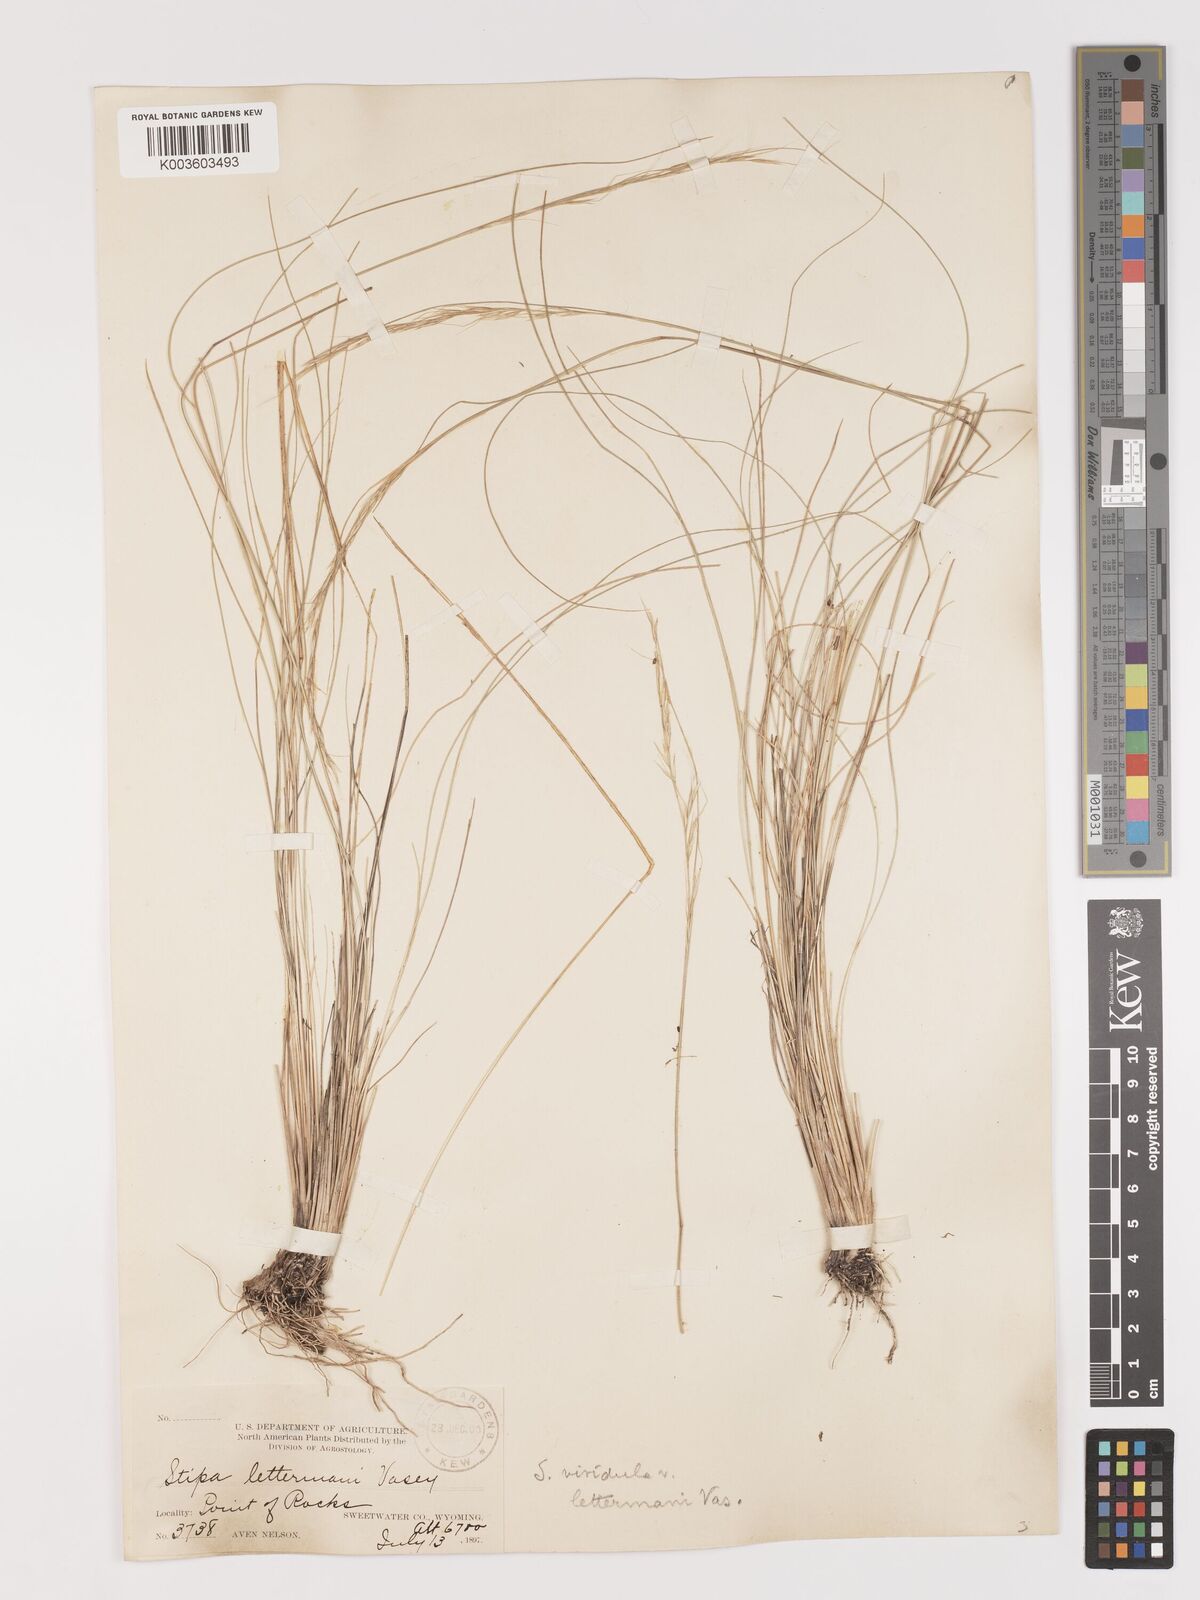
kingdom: Plantae
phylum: Tracheophyta
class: Liliopsida
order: Poales
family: Poaceae
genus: Eriocoma
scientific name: Eriocoma lettermanii
